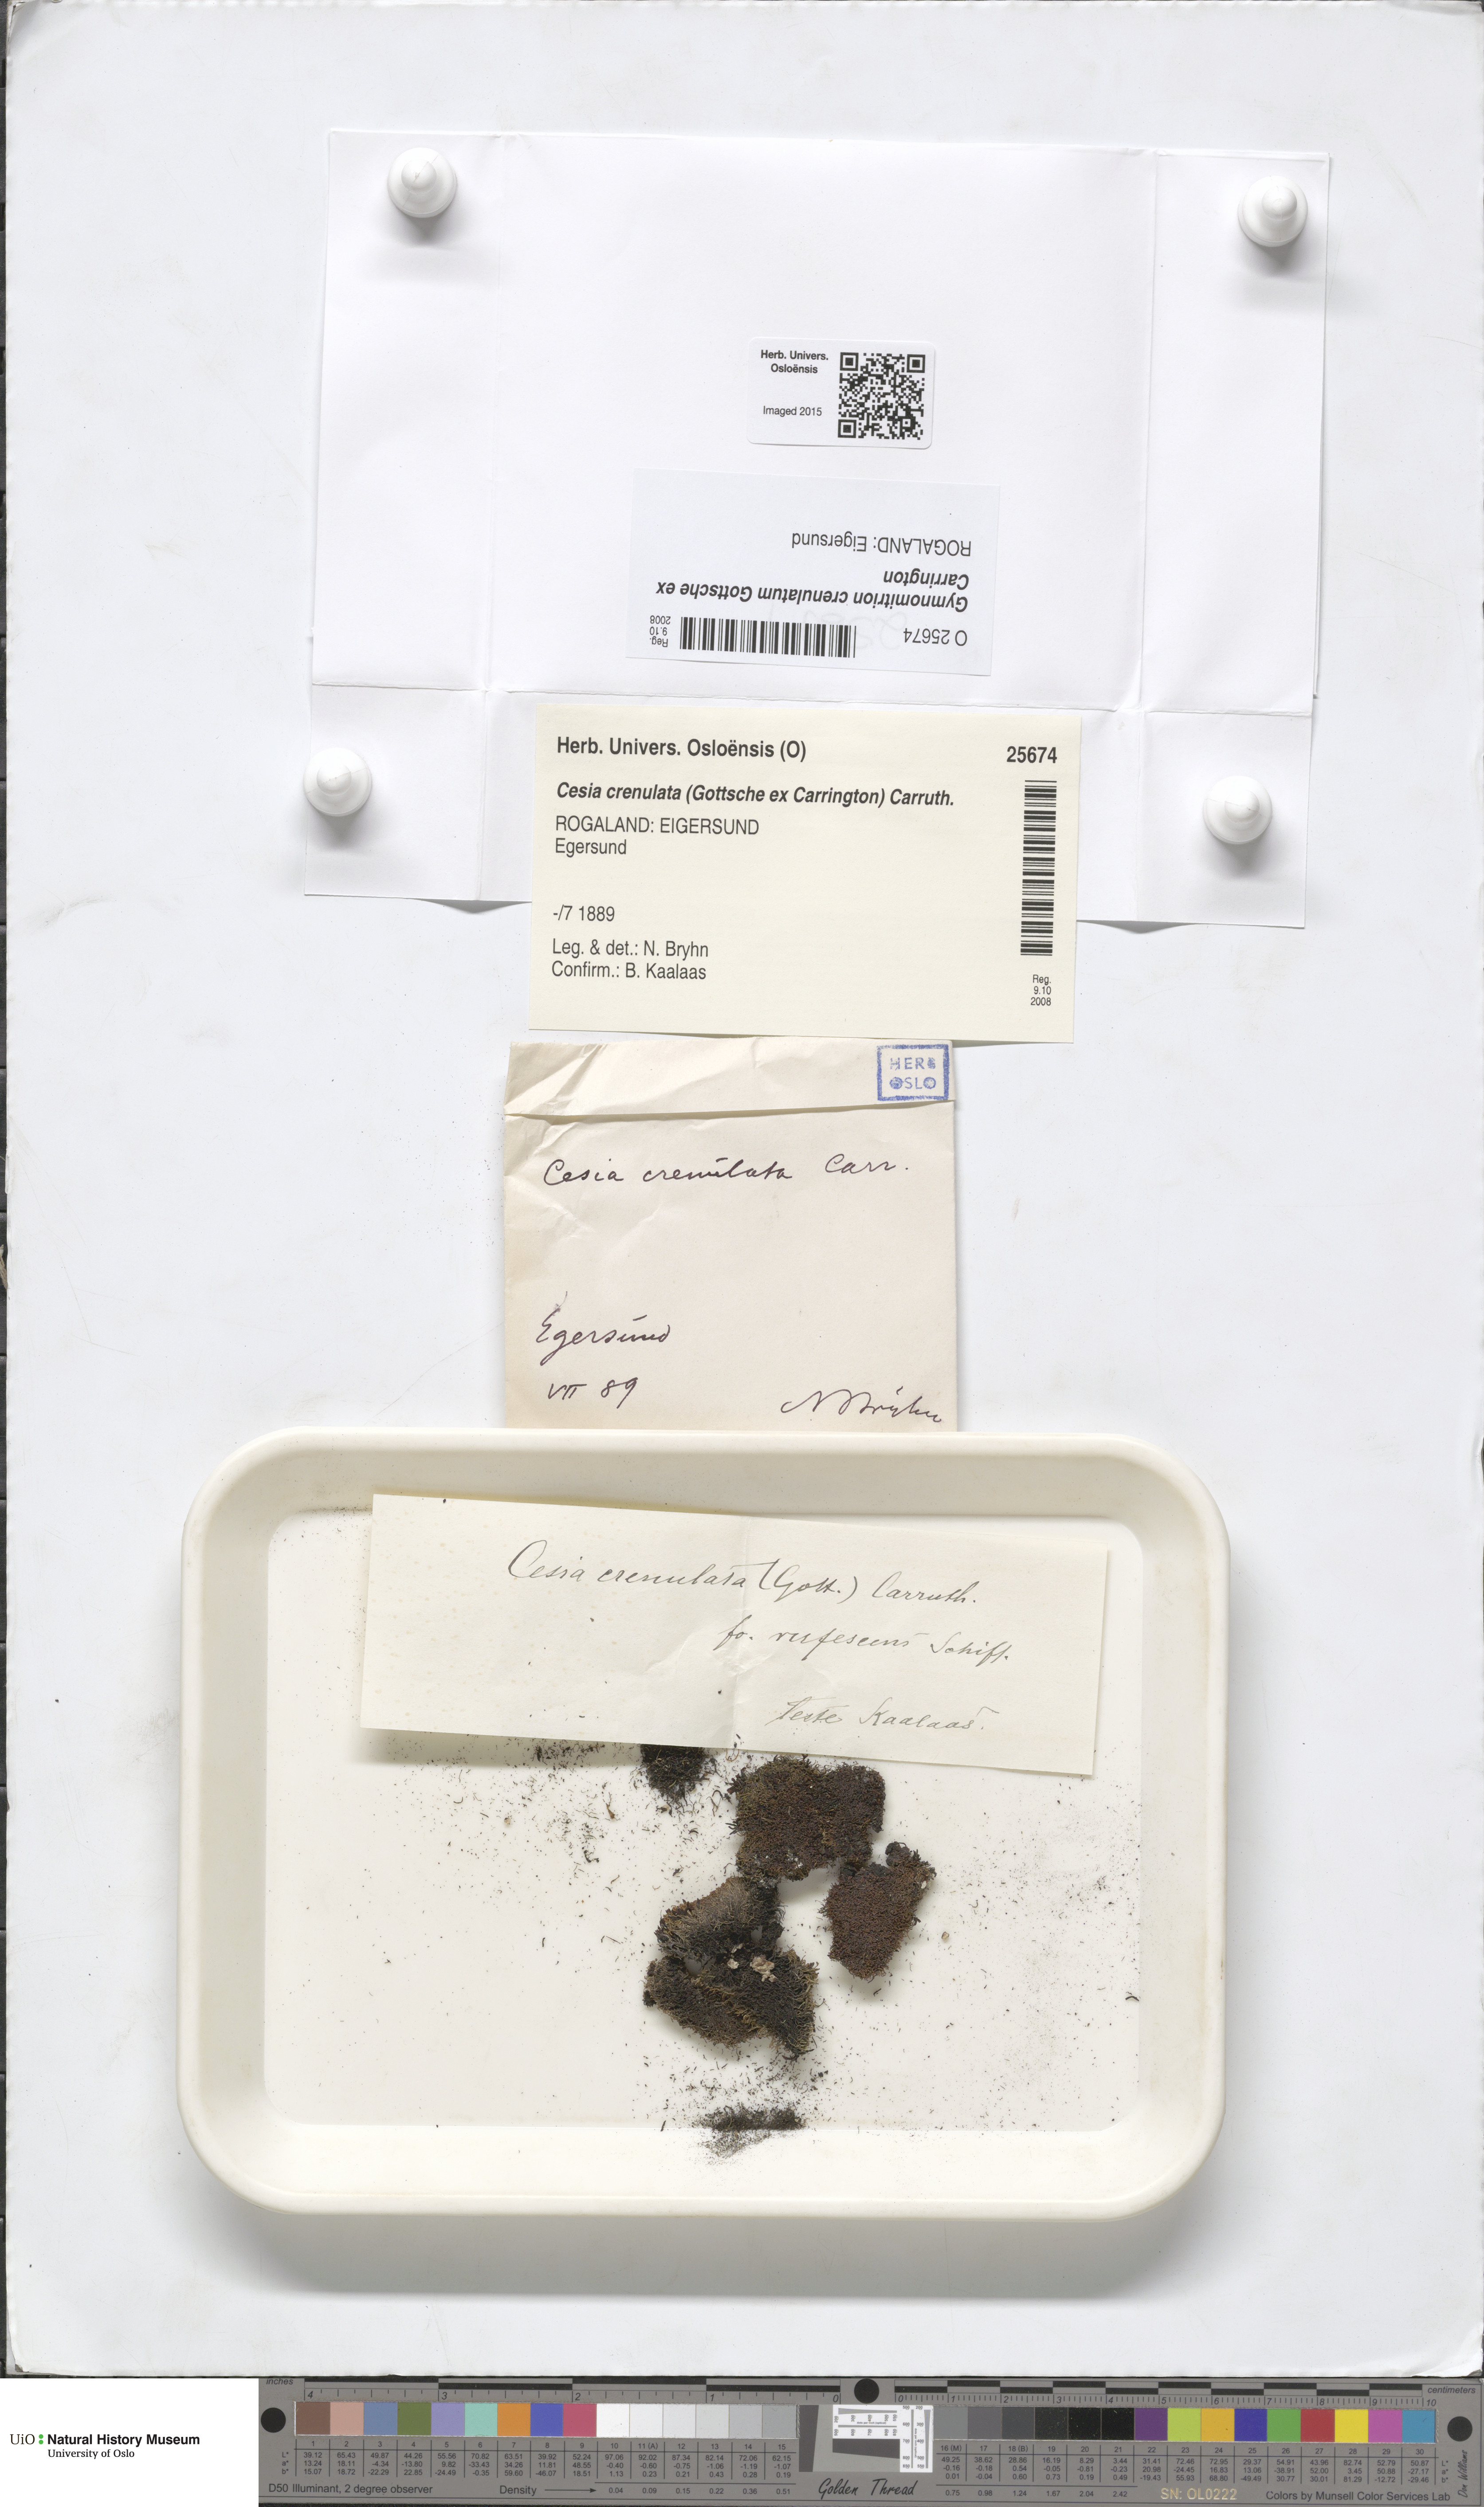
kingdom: Plantae
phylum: Marchantiophyta
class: Jungermanniopsida
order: Jungermanniales
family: Gymnomitriaceae
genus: Gymnomitrion
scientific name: Gymnomitrion crenulatum
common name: Western frostwort
